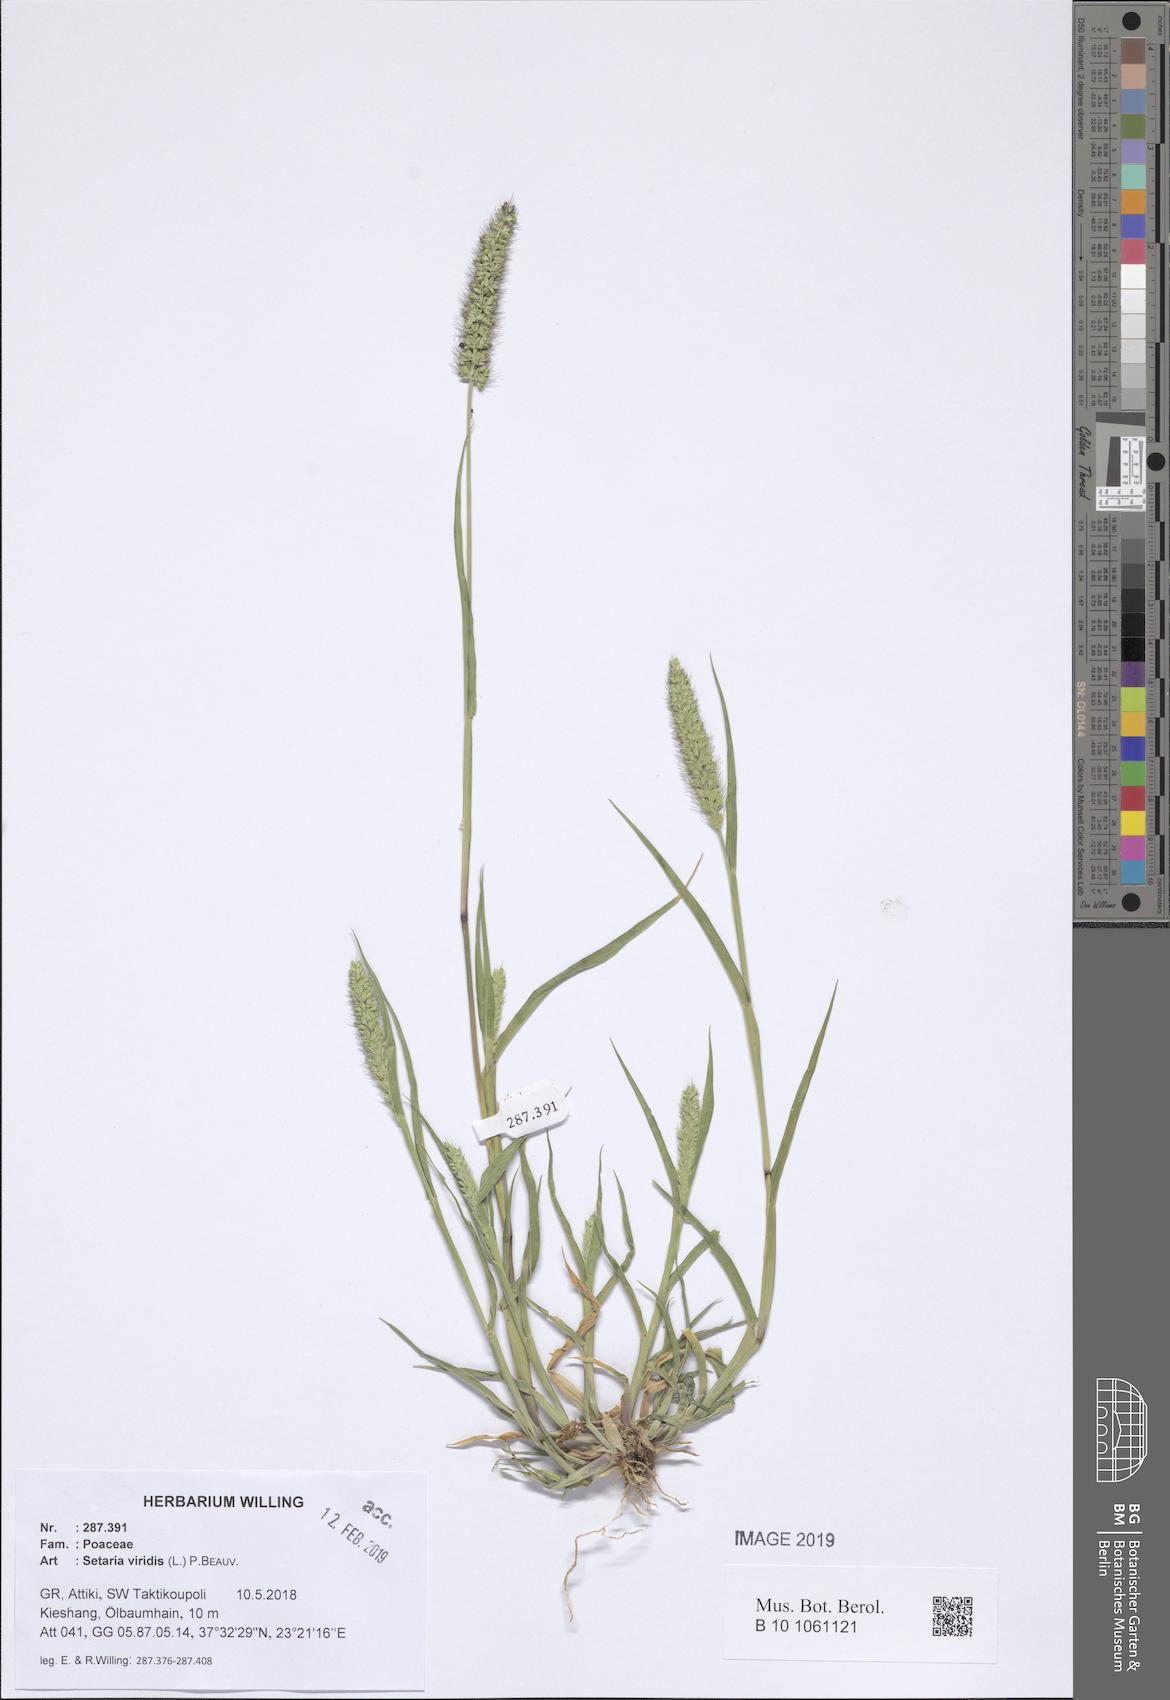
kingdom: Plantae
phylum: Tracheophyta
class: Liliopsida
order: Poales
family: Poaceae
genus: Setaria
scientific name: Setaria viridis
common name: Green bristlegrass
